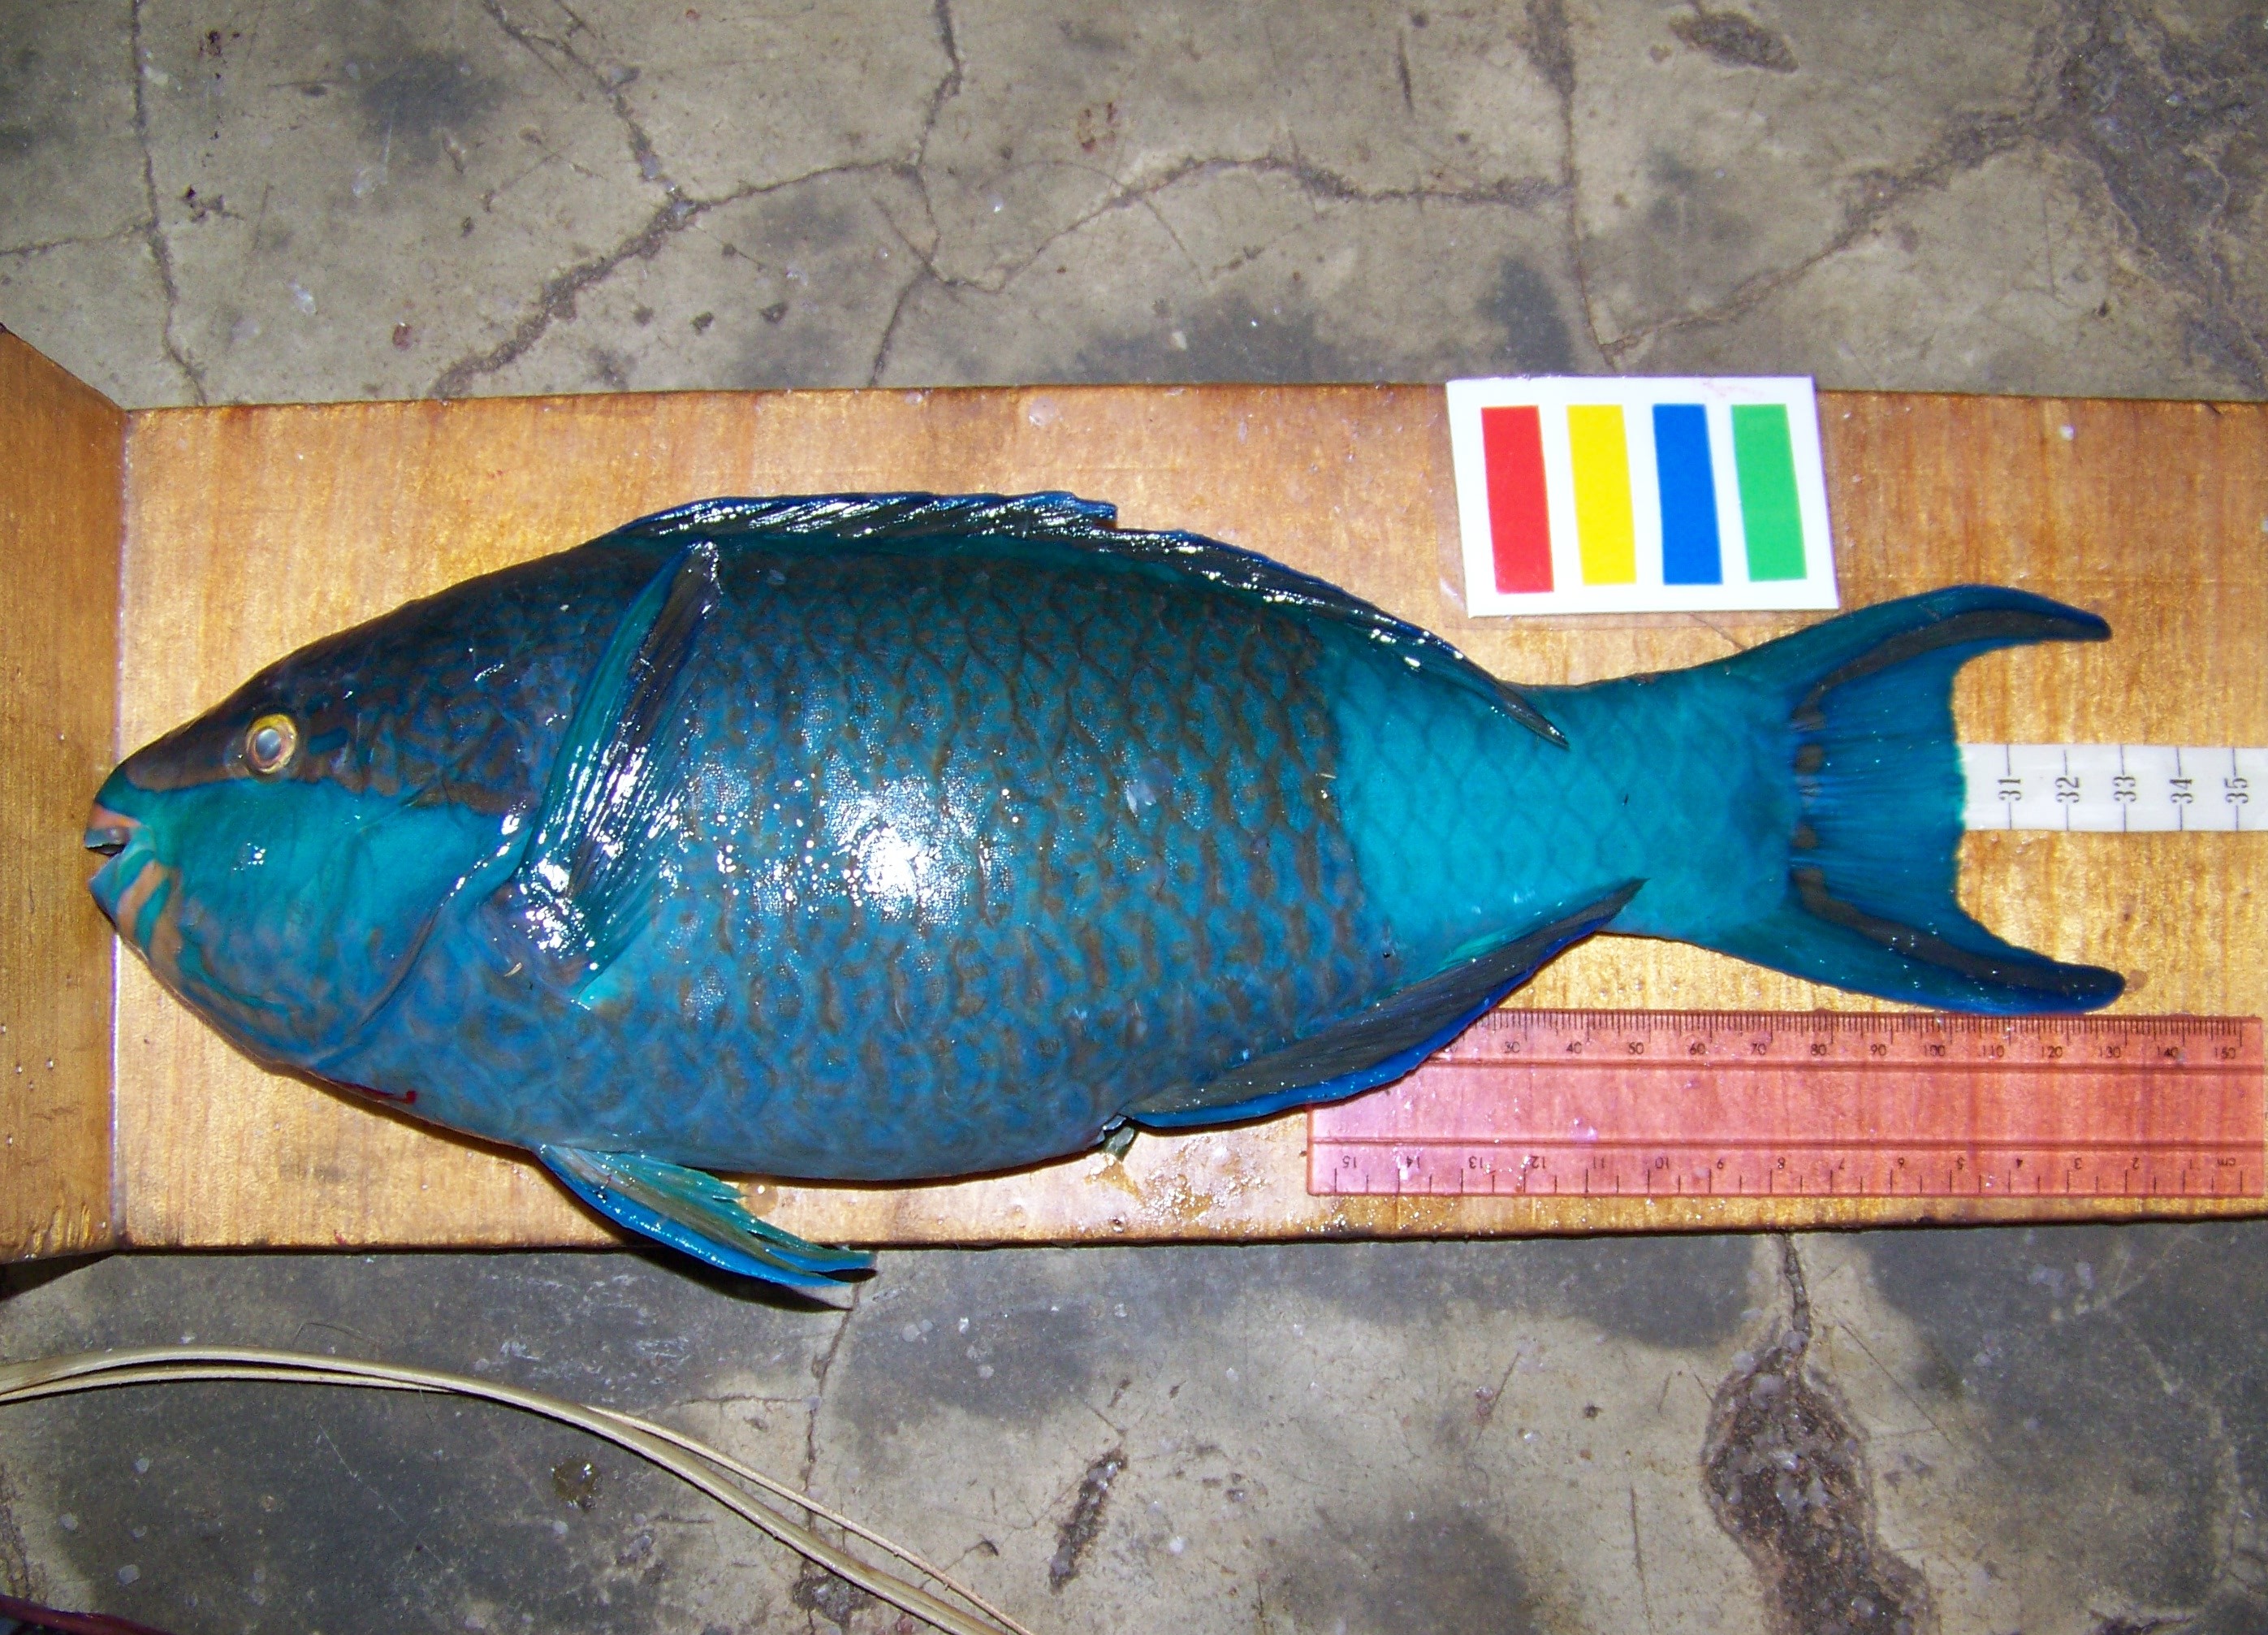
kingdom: Animalia
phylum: Chordata
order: Perciformes
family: Scaridae
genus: Scarus
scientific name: Scarus scaber
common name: Dusky-capped parrotfish
